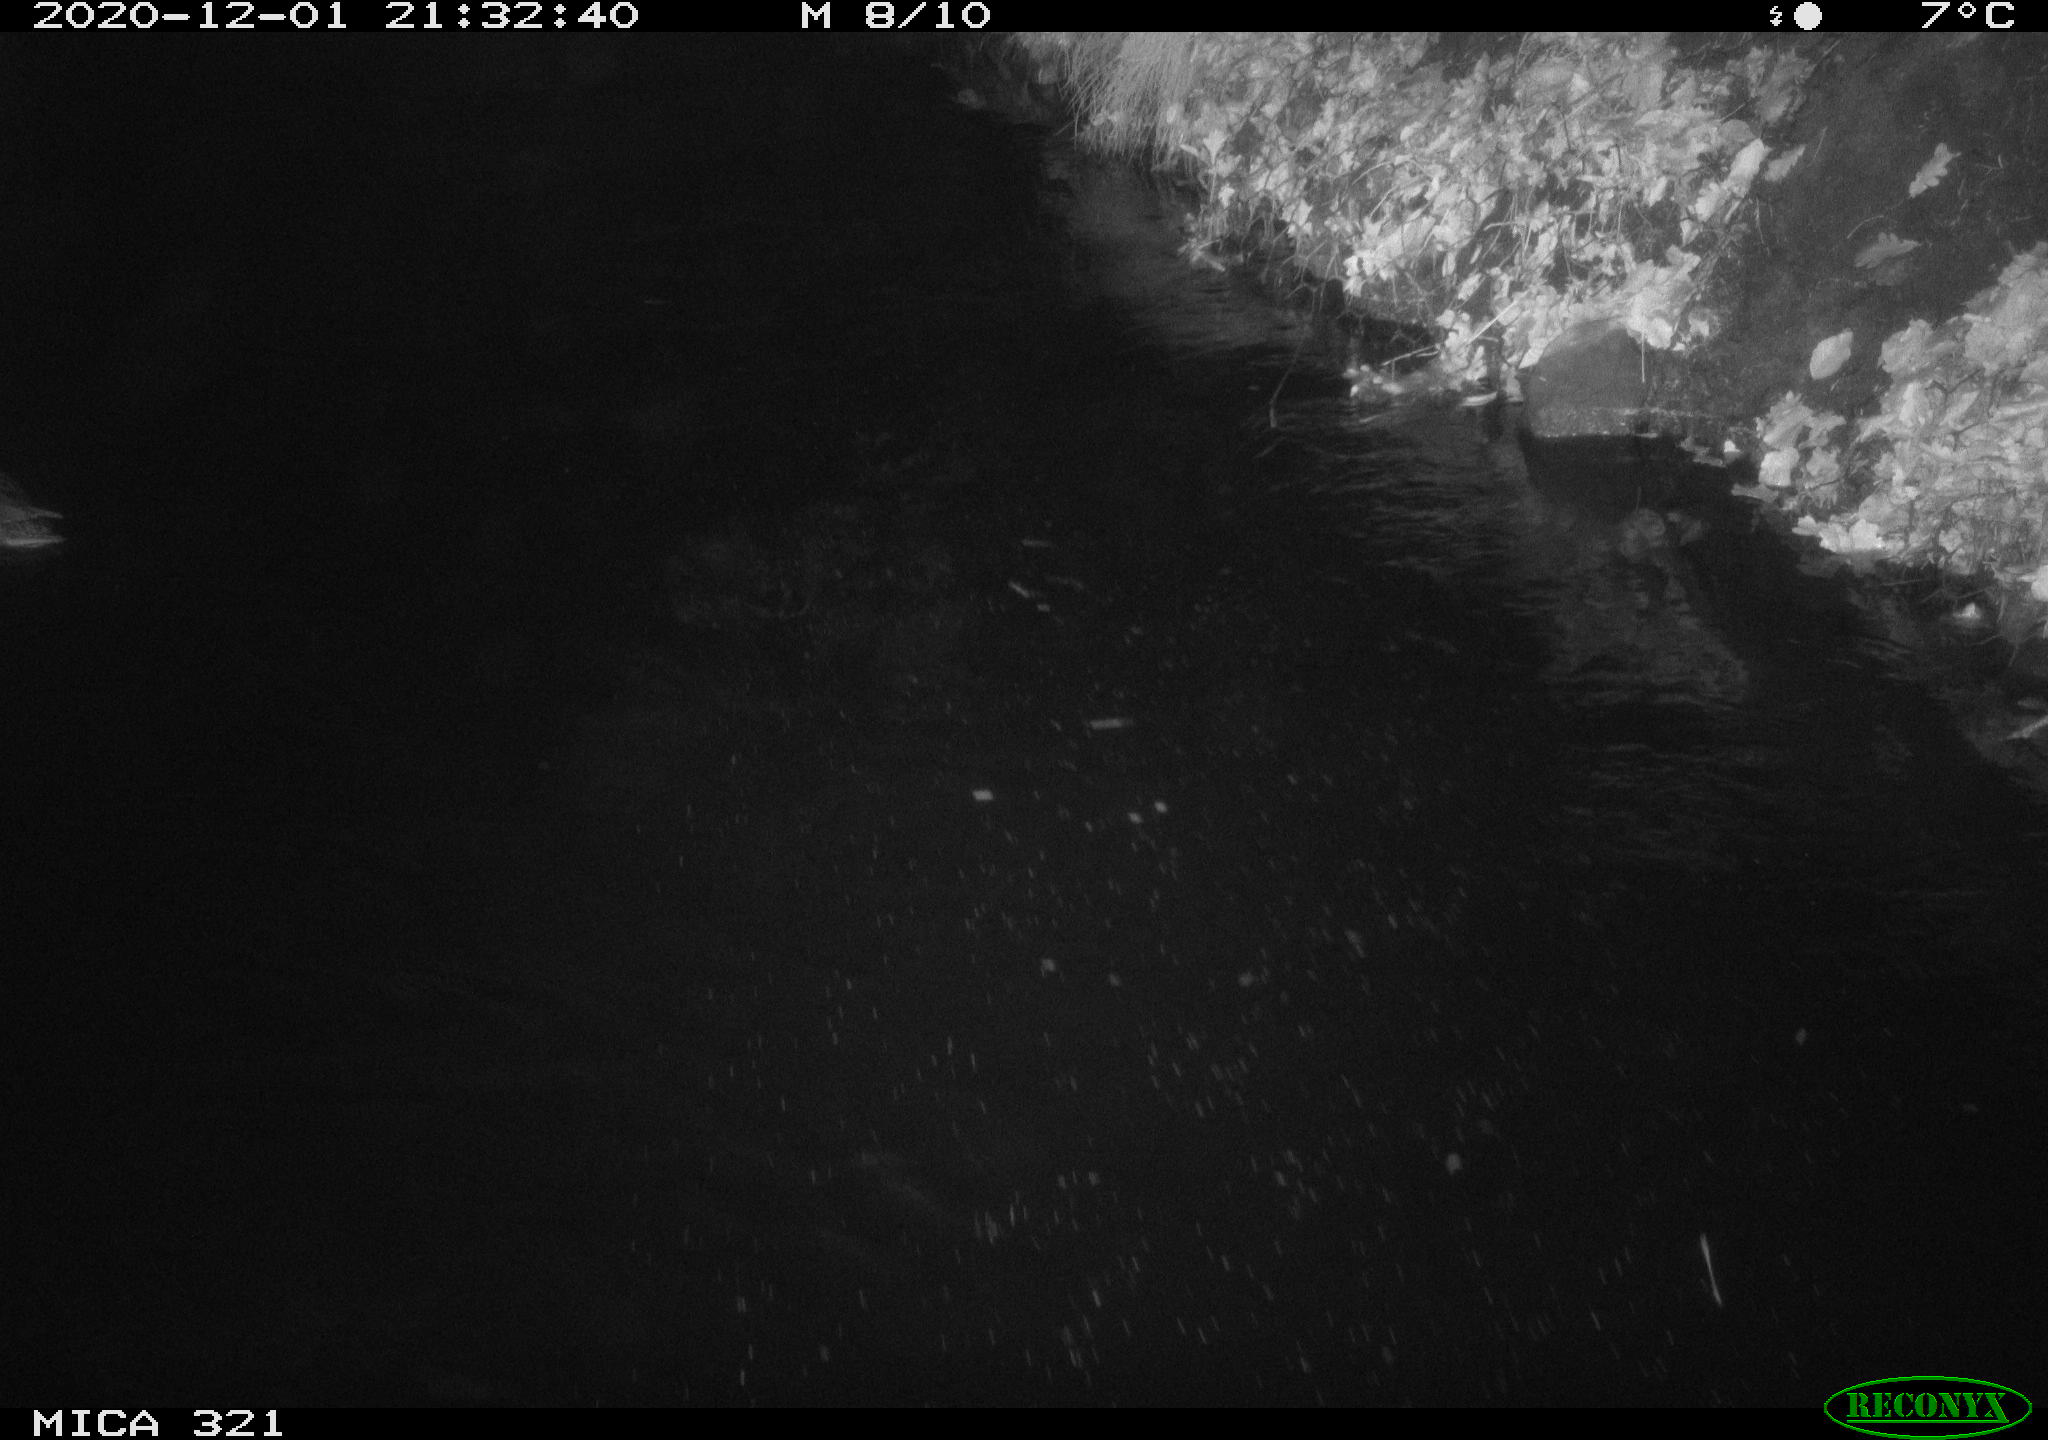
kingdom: Animalia
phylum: Chordata
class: Aves
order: Anseriformes
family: Anatidae
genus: Anas
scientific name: Anas platyrhynchos
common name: Mallard
